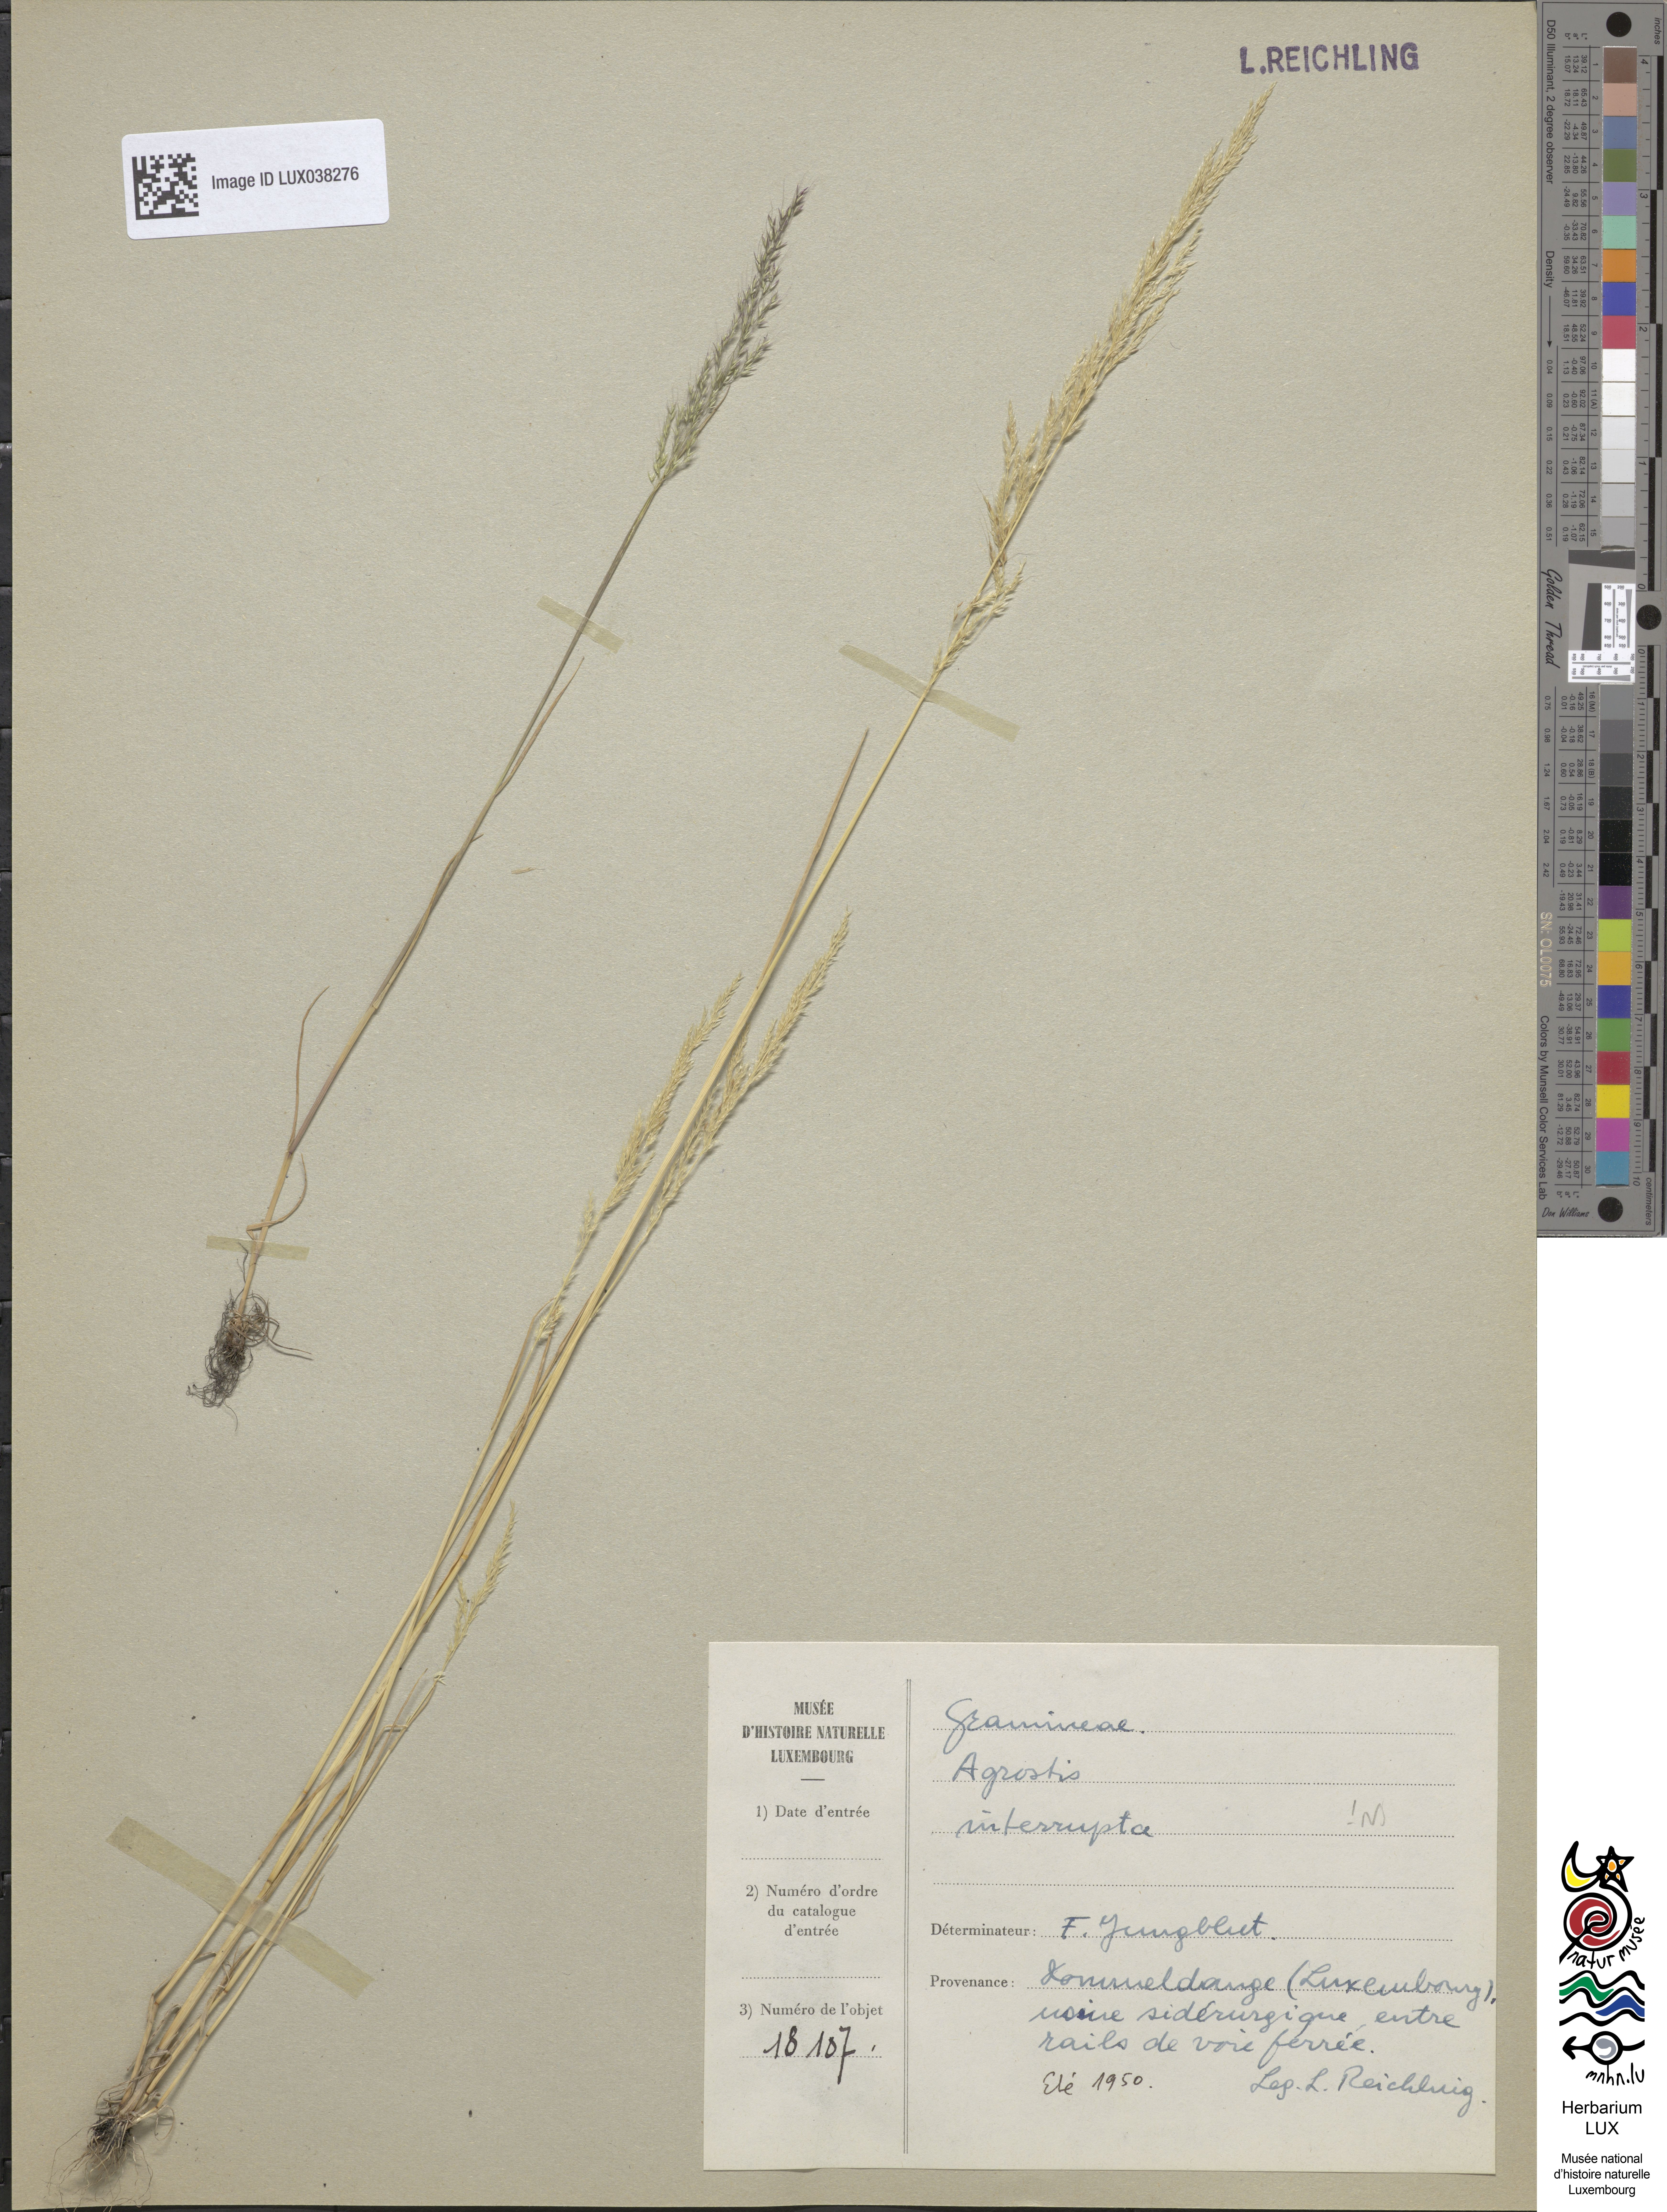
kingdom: Plantae
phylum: Tracheophyta
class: Liliopsida
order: Poales
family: Poaceae
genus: Apera
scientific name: Apera interrupta
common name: Dense silky-bent
